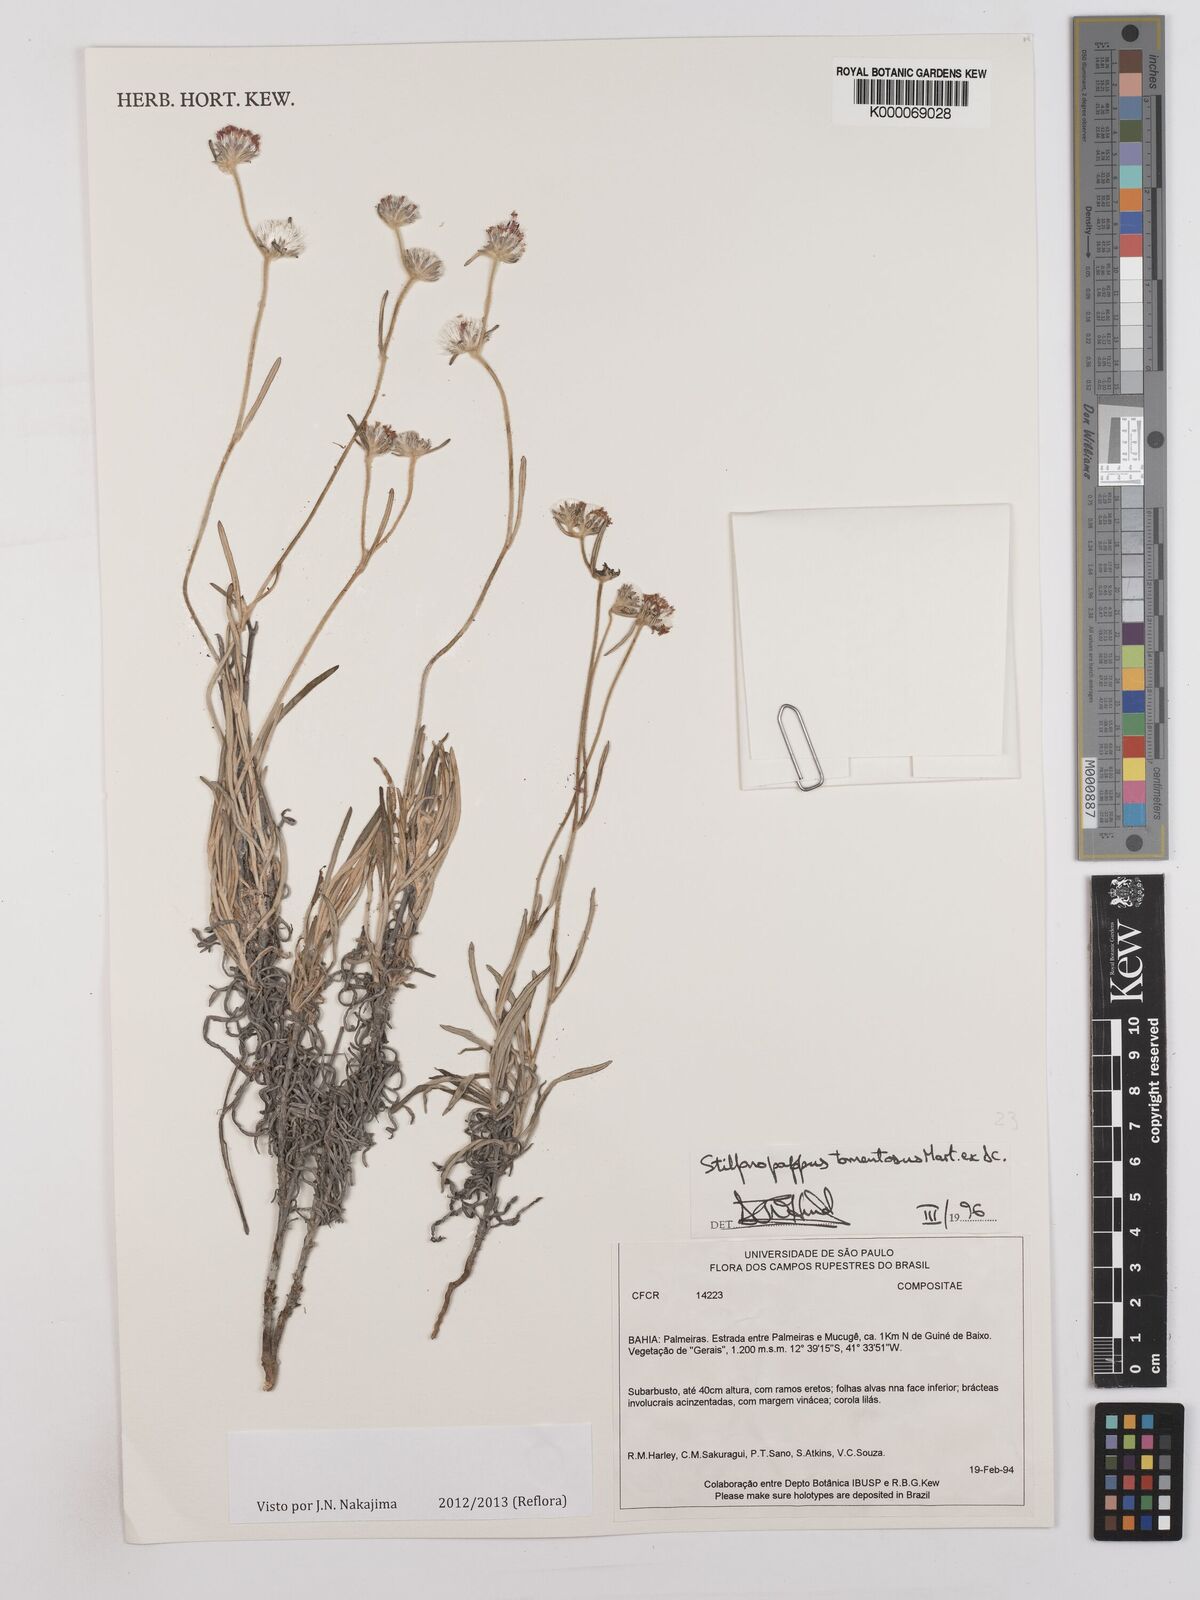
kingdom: Plantae
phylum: Tracheophyta
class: Magnoliopsida
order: Asterales
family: Asteraceae
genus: Stilpnopappus
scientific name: Stilpnopappus tomentosus
